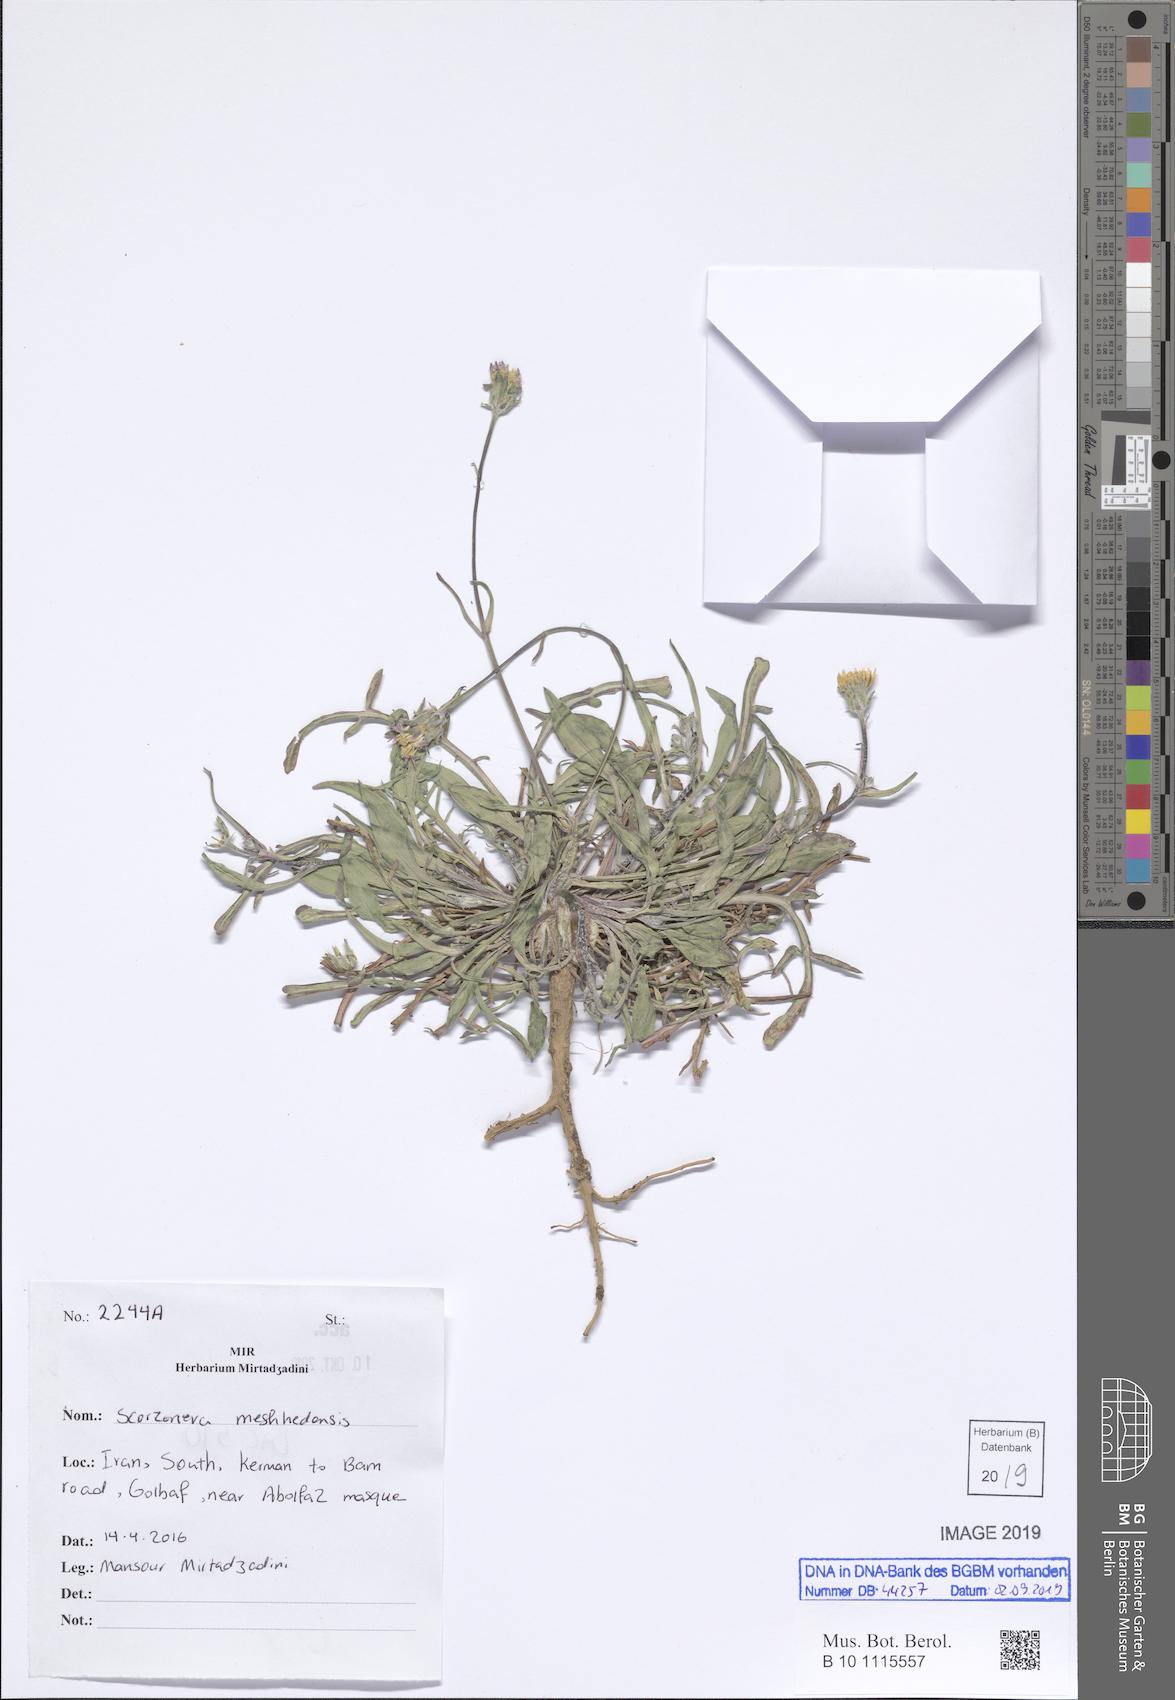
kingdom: Plantae
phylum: Tracheophyta
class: Magnoliopsida
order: Asterales
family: Asteraceae
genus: Scorzonera
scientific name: Scorzonera meshhedensis
